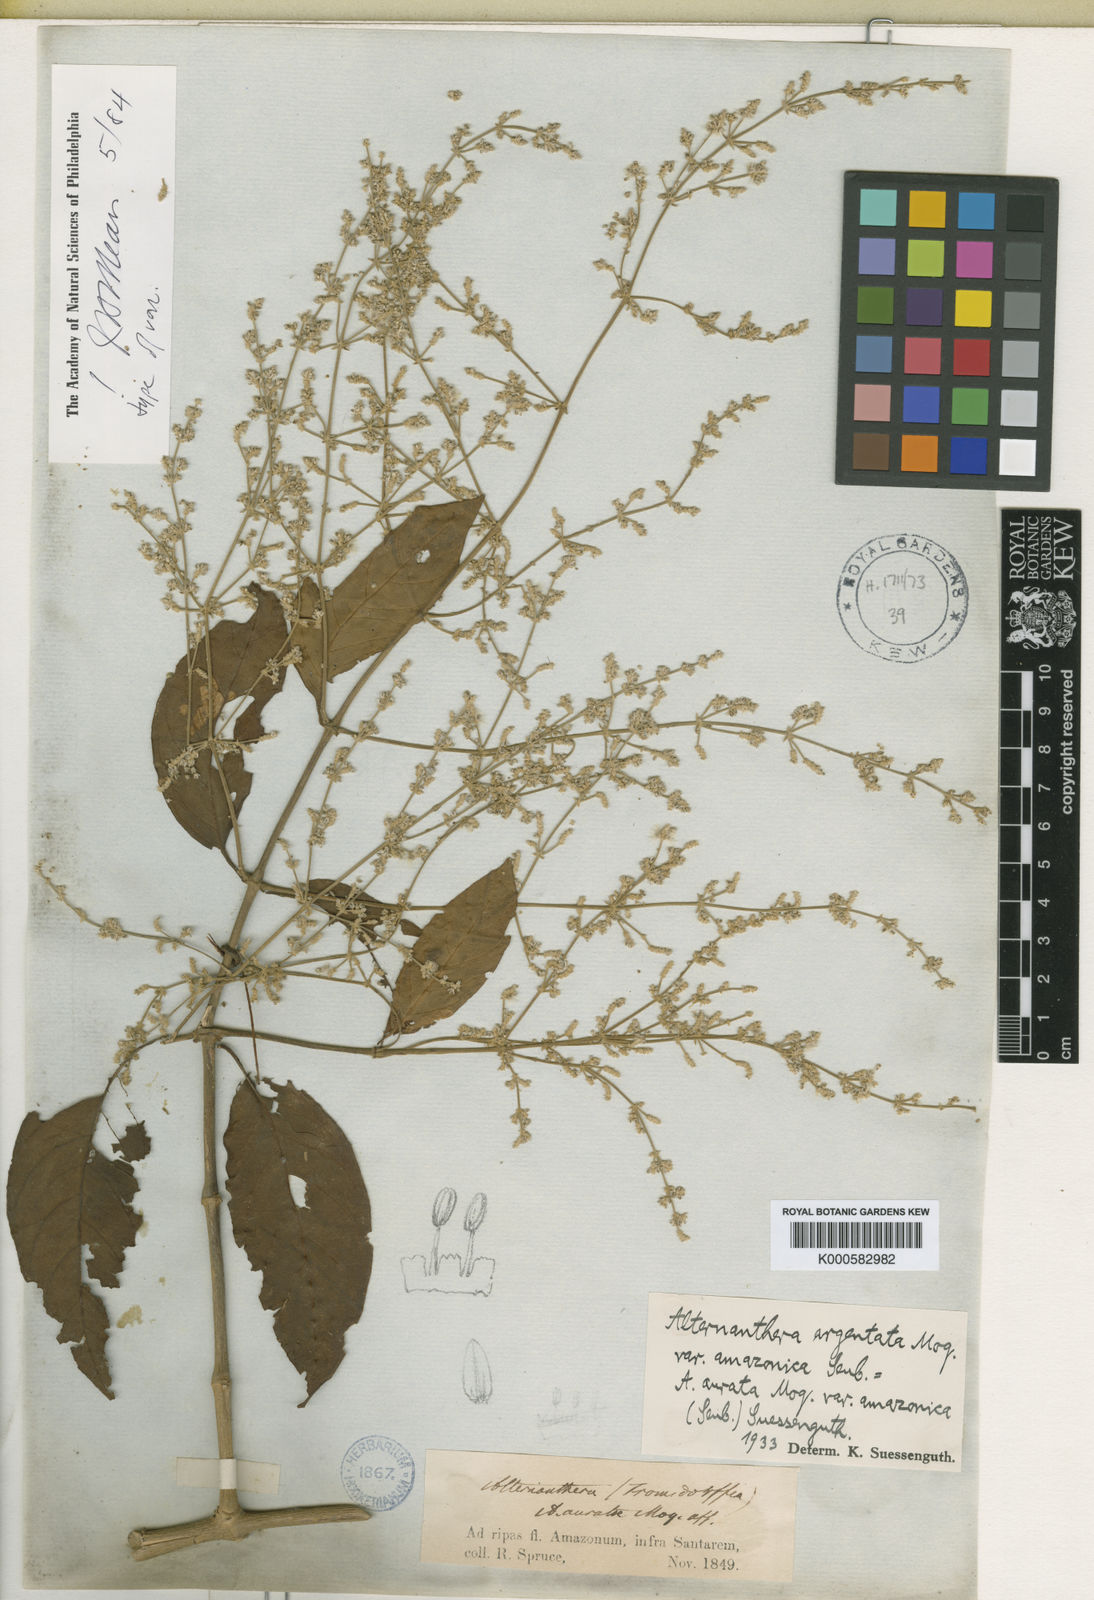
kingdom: Plantae
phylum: Tracheophyta
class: Magnoliopsida
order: Caryophyllales
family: Amaranthaceae
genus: Pedersenia
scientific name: Pedersenia argentata
